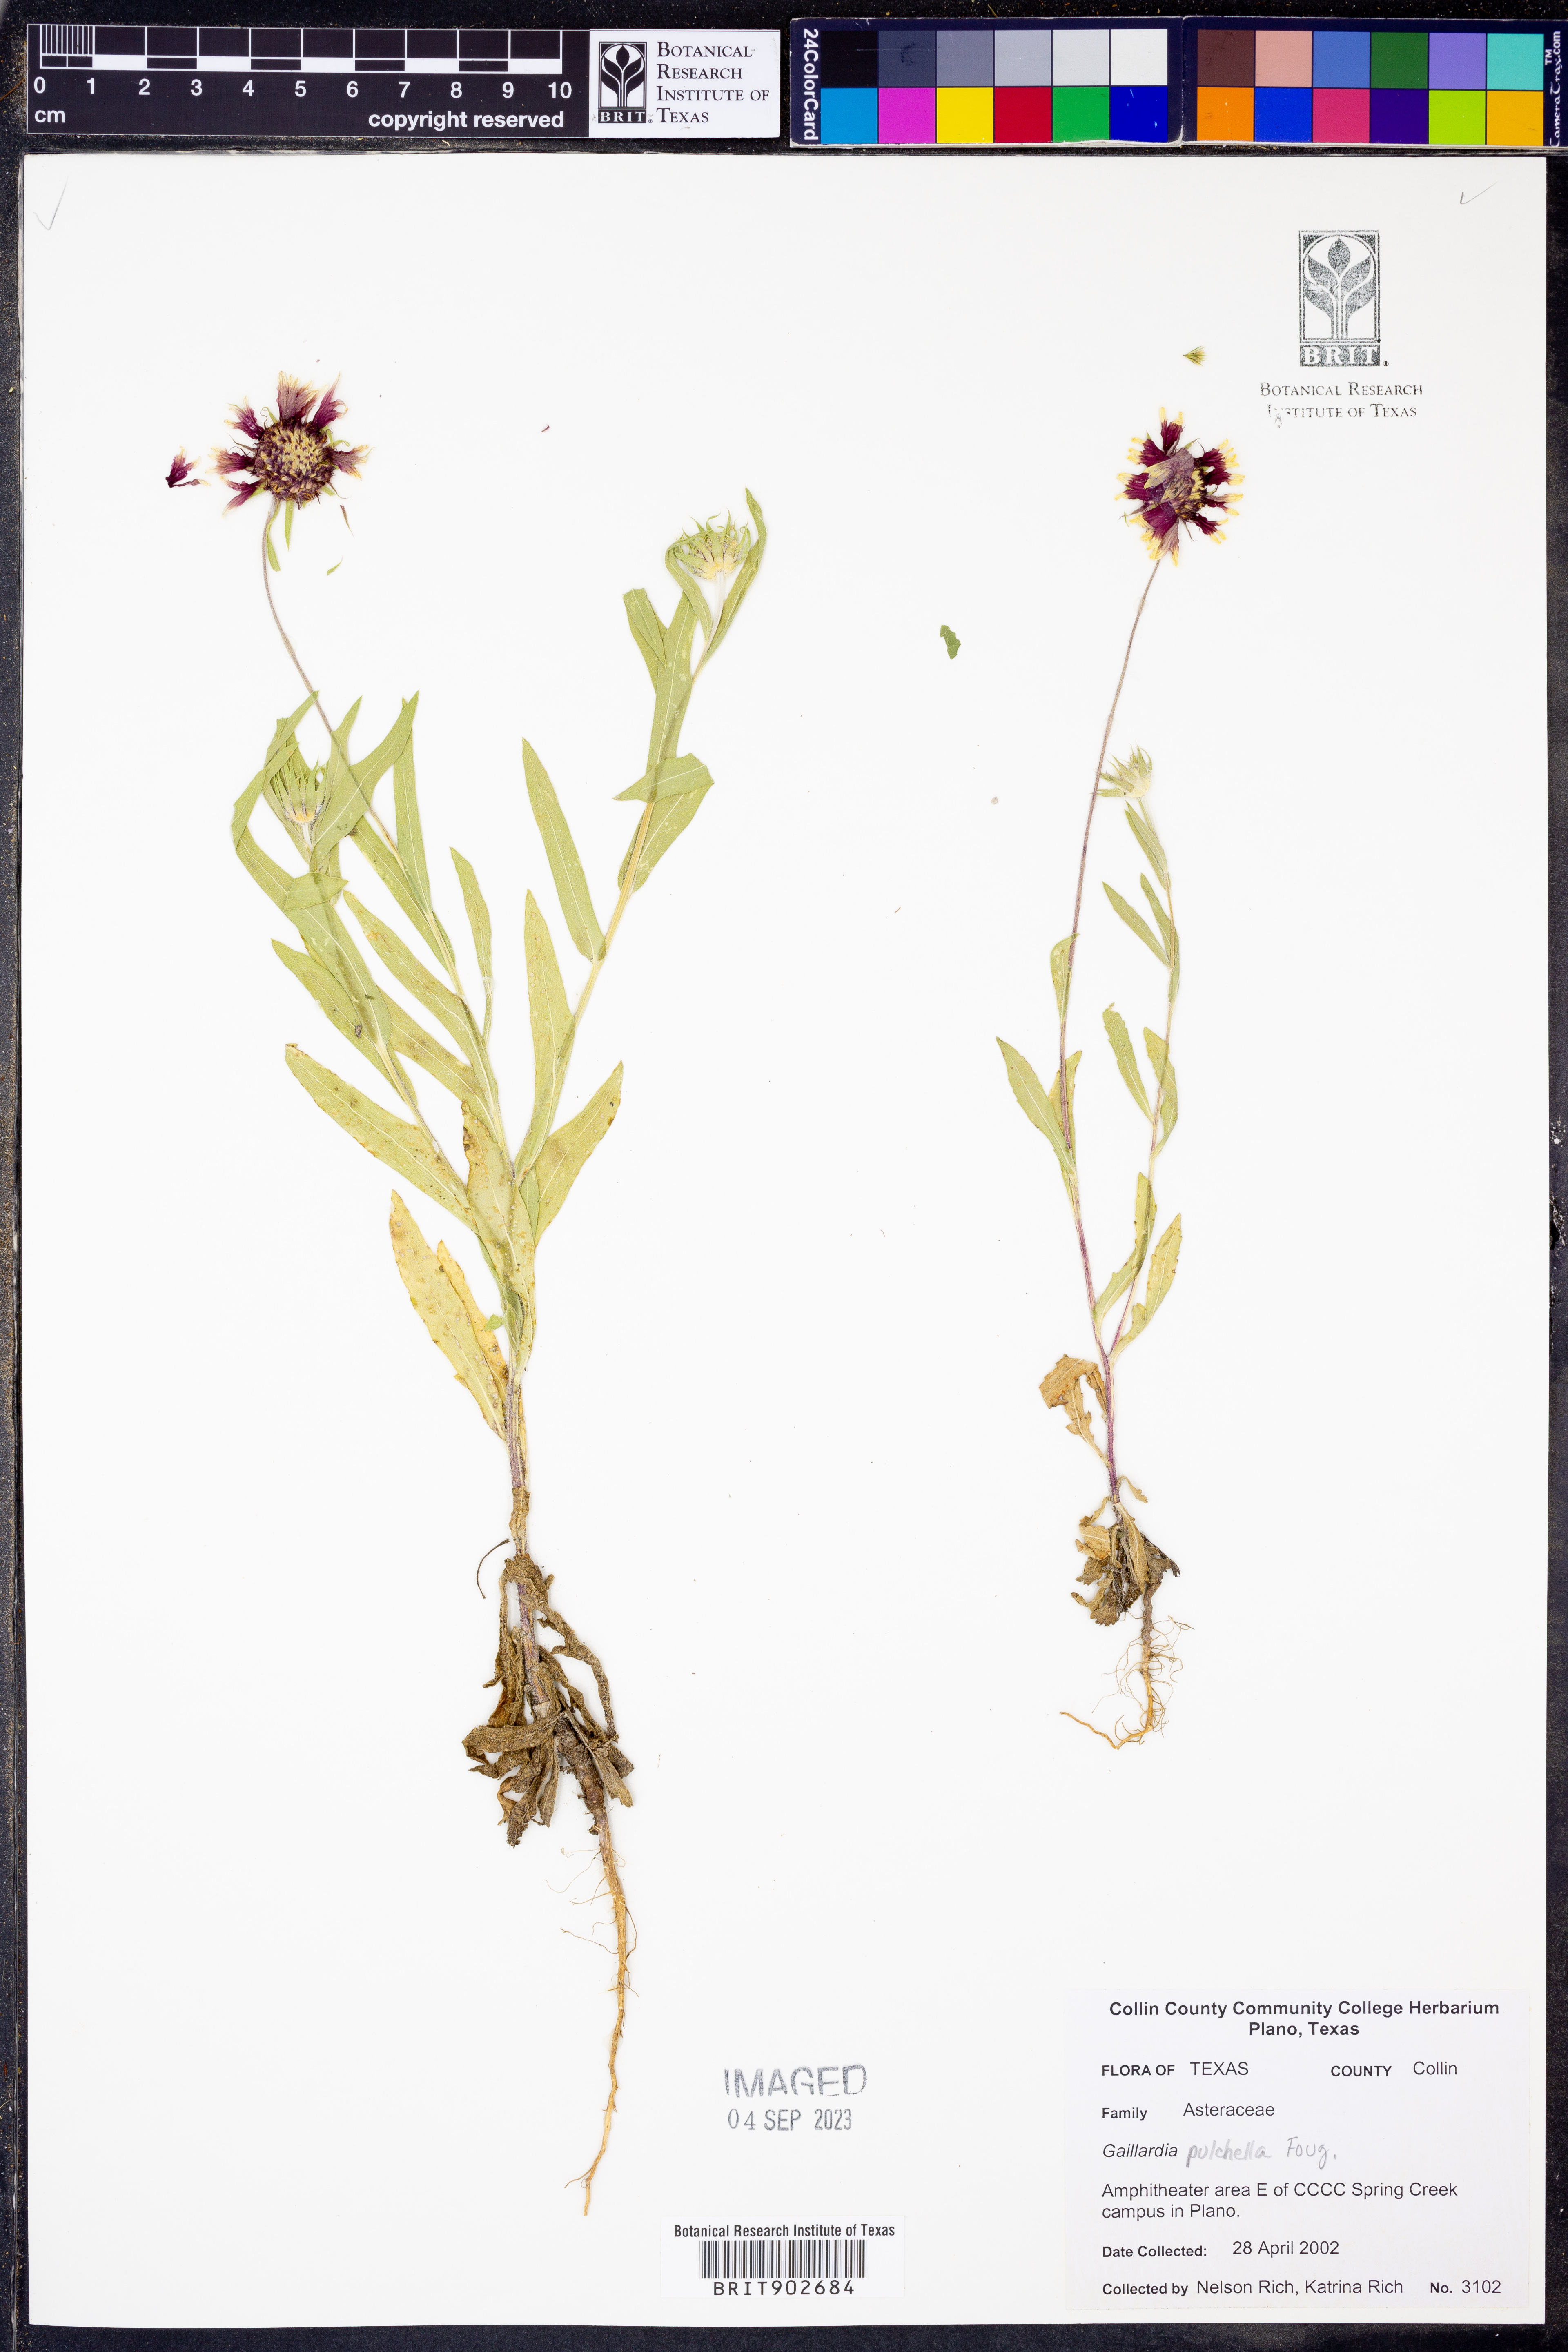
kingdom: Plantae
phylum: Tracheophyta
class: Magnoliopsida
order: Asterales
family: Asteraceae
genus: Gaillardia
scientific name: Gaillardia pulchella
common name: Firewheel
